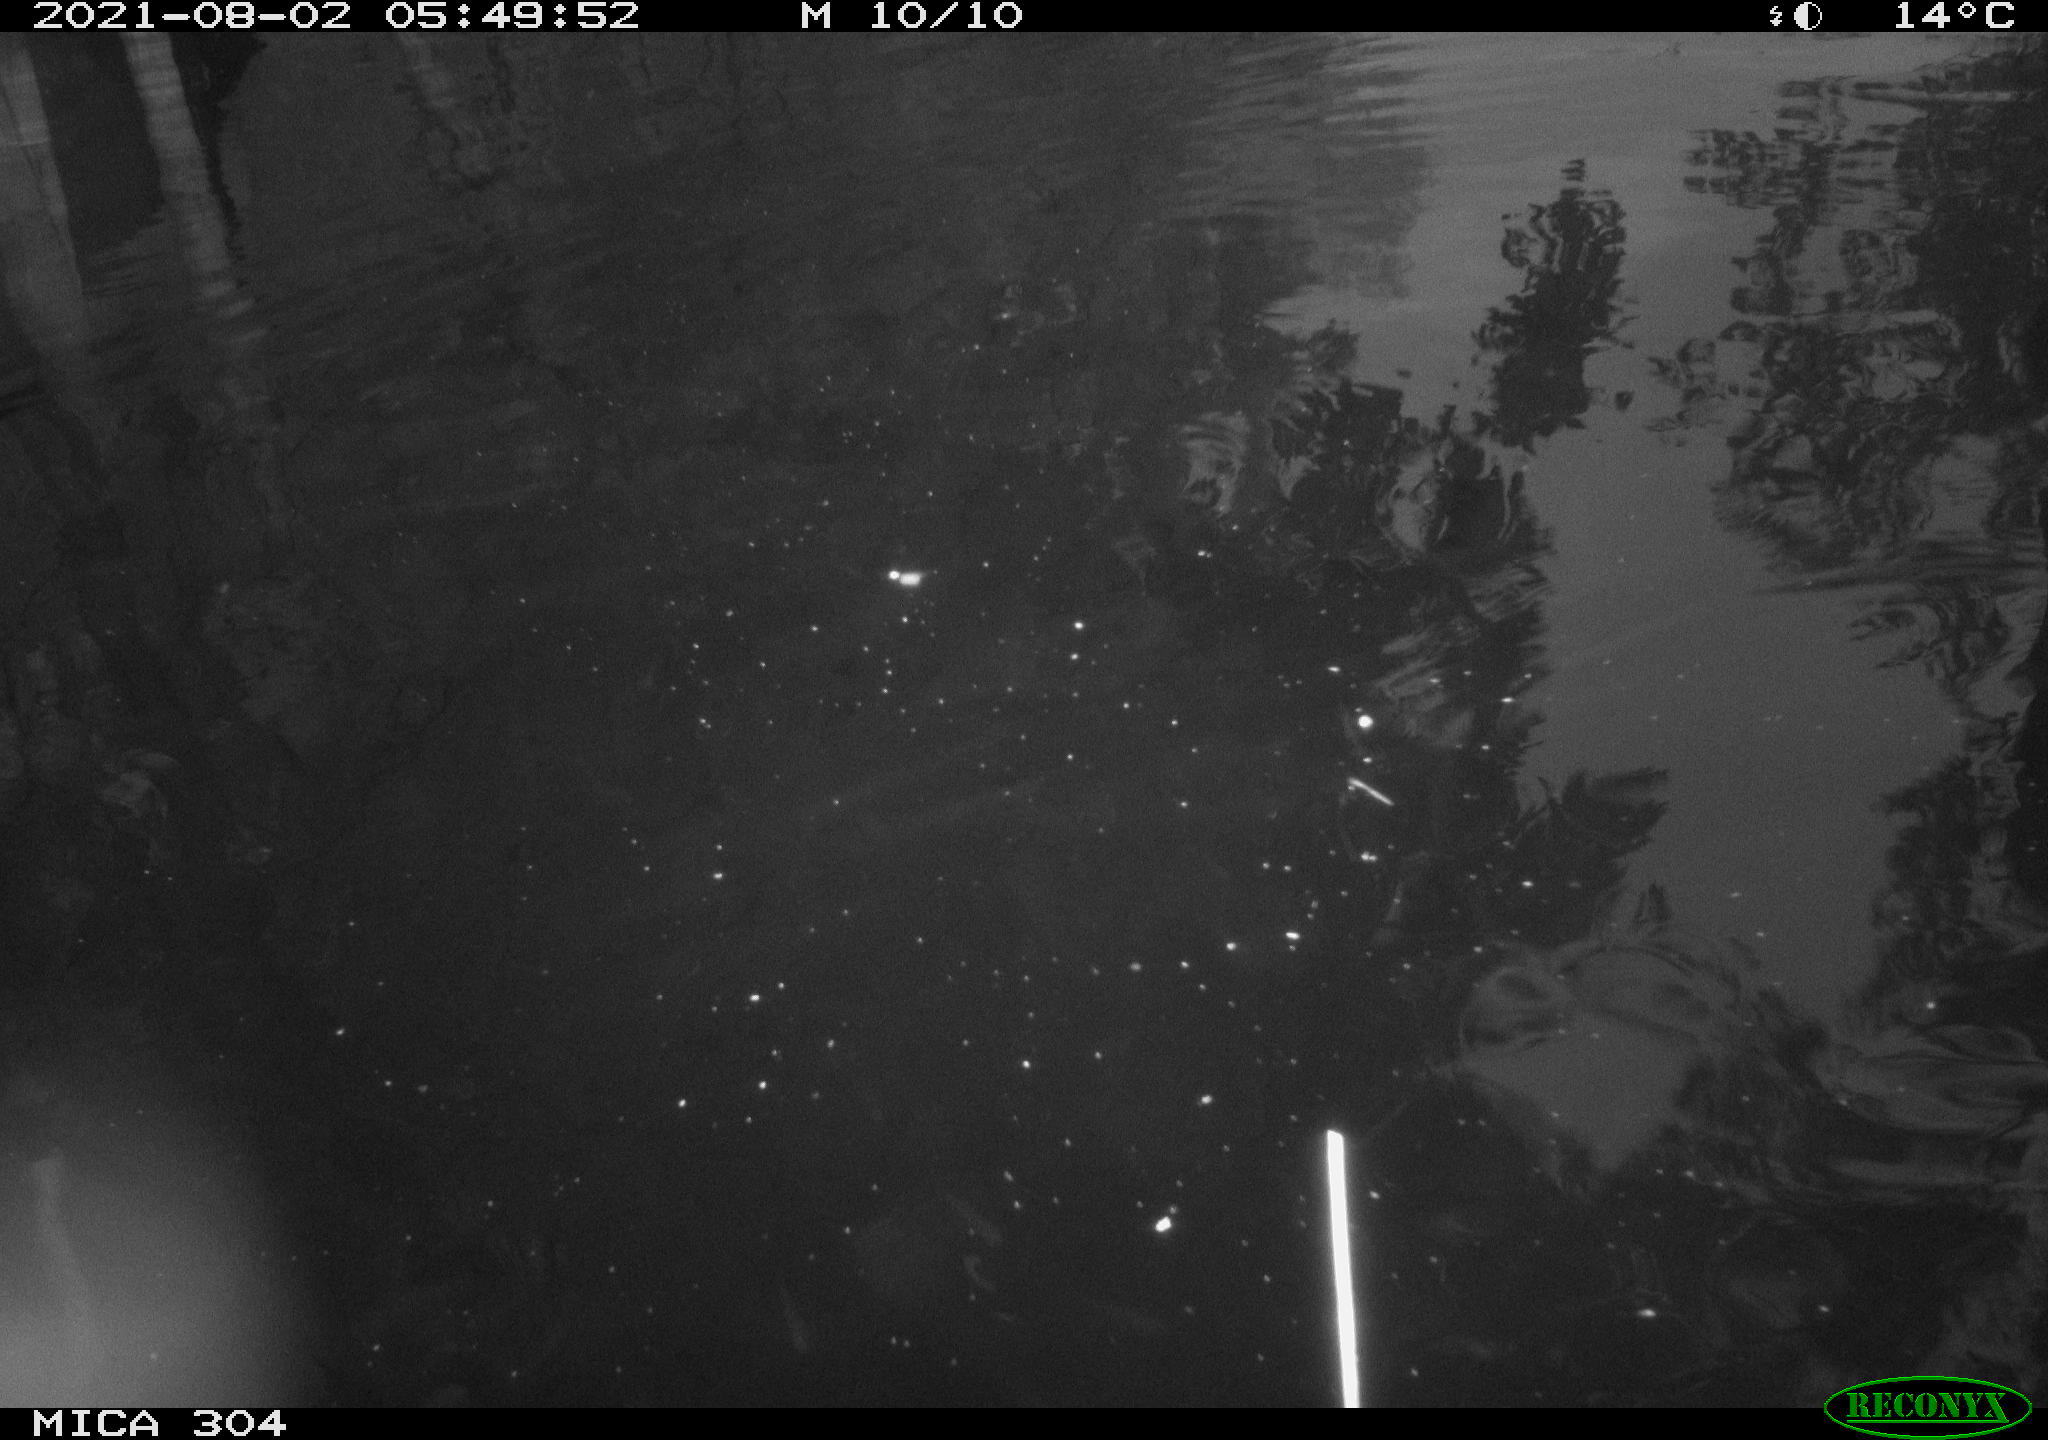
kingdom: Animalia
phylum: Chordata
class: Mammalia
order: Rodentia
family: Muridae
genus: Rattus
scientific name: Rattus norvegicus
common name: Brown rat
